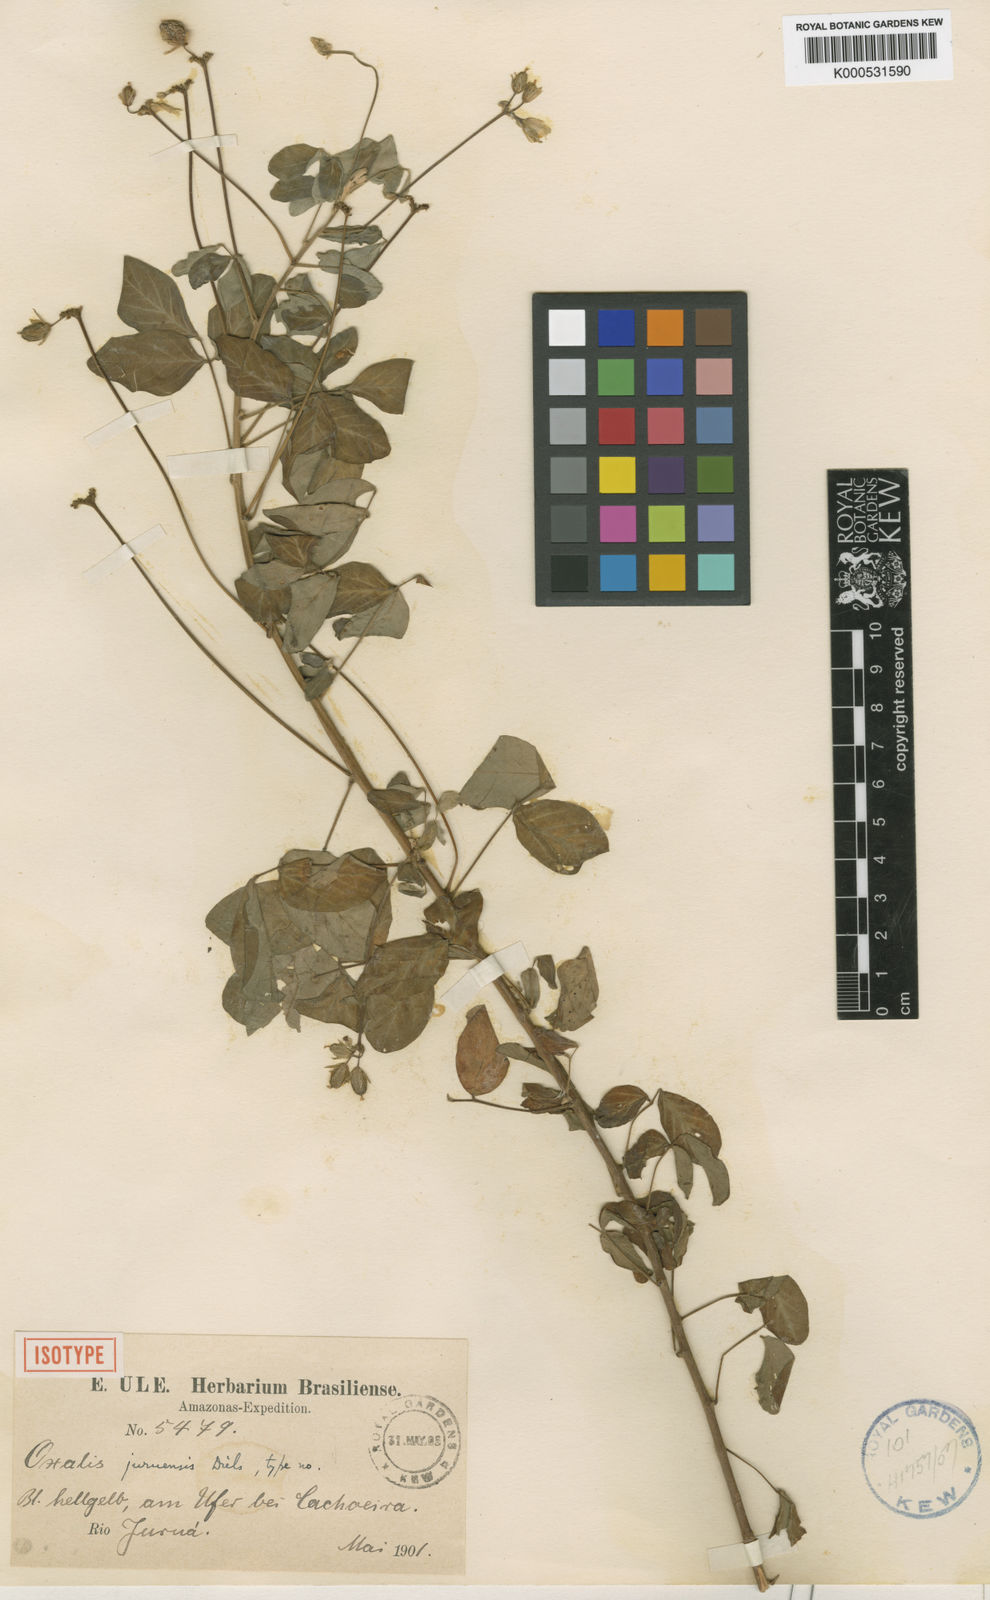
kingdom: Plantae
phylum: Tracheophyta
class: Magnoliopsida
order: Oxalidales
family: Oxalidaceae
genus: Oxalis
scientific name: Oxalis juruensis
